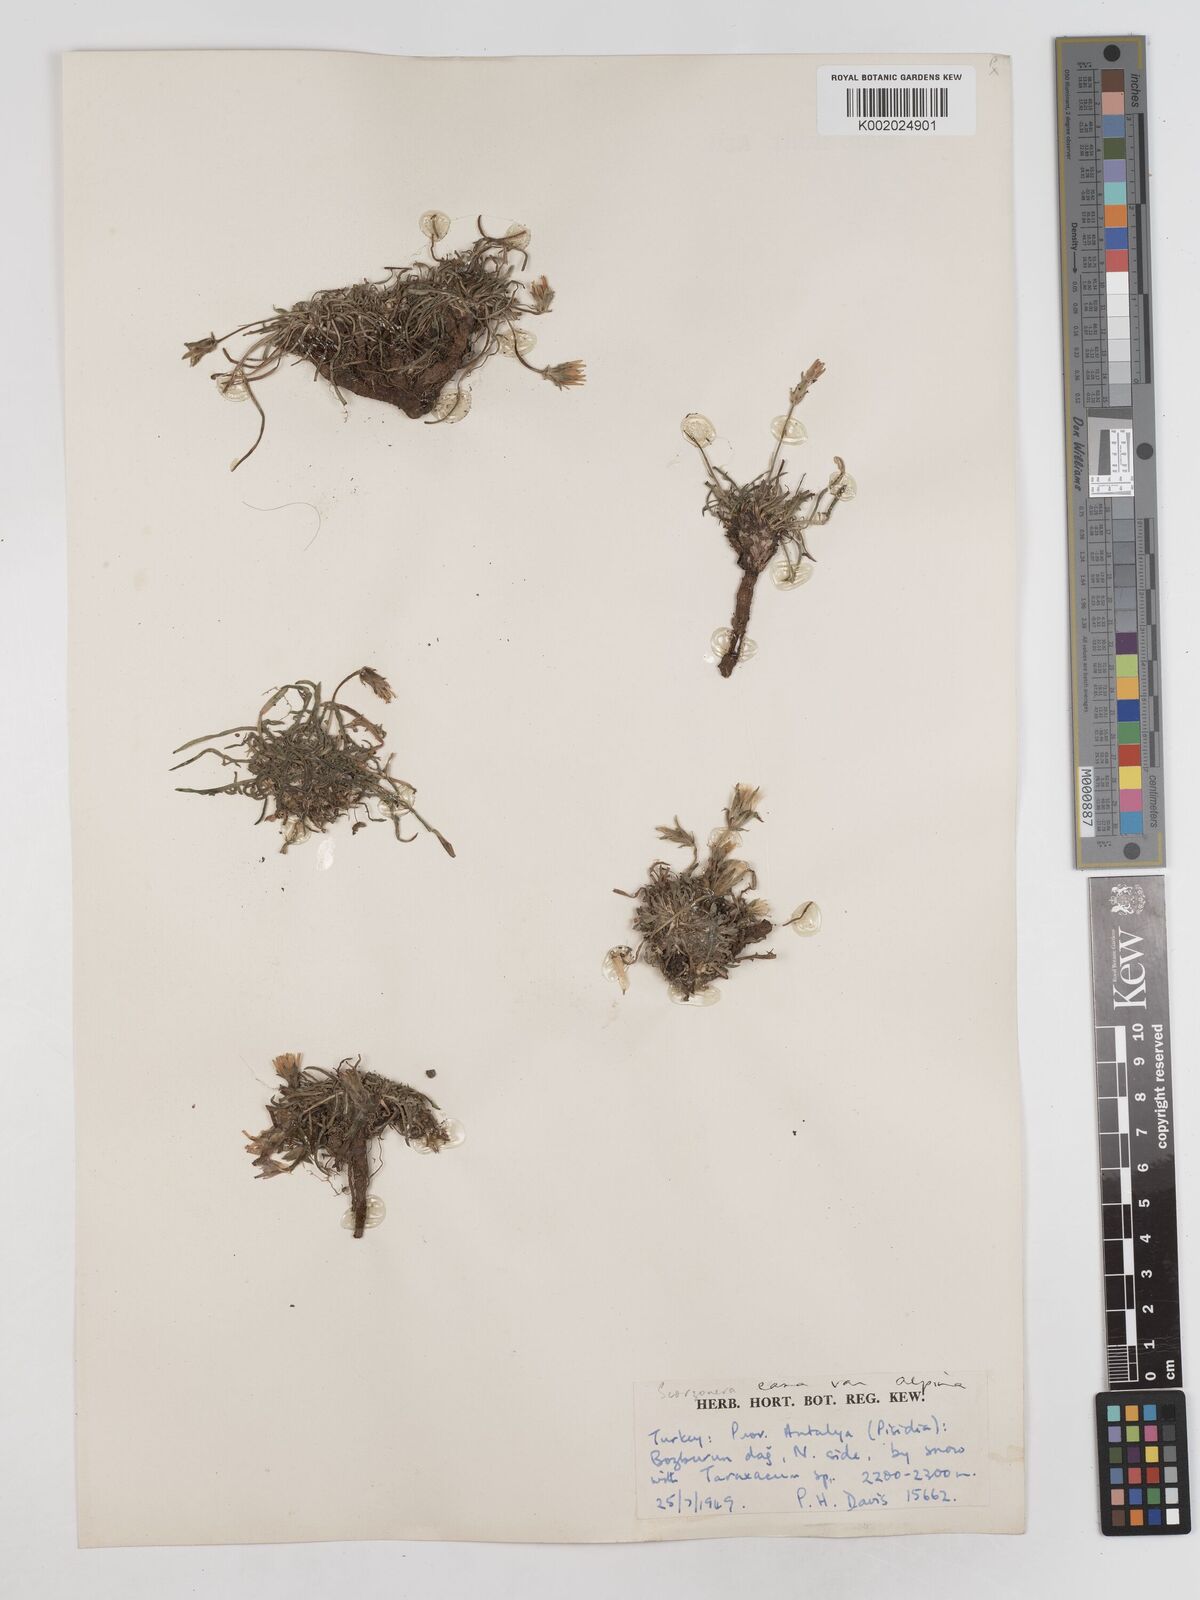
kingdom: Plantae
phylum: Tracheophyta
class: Magnoliopsida
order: Asterales
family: Asteraceae
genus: Scorzonera
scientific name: Scorzonera alpigena
